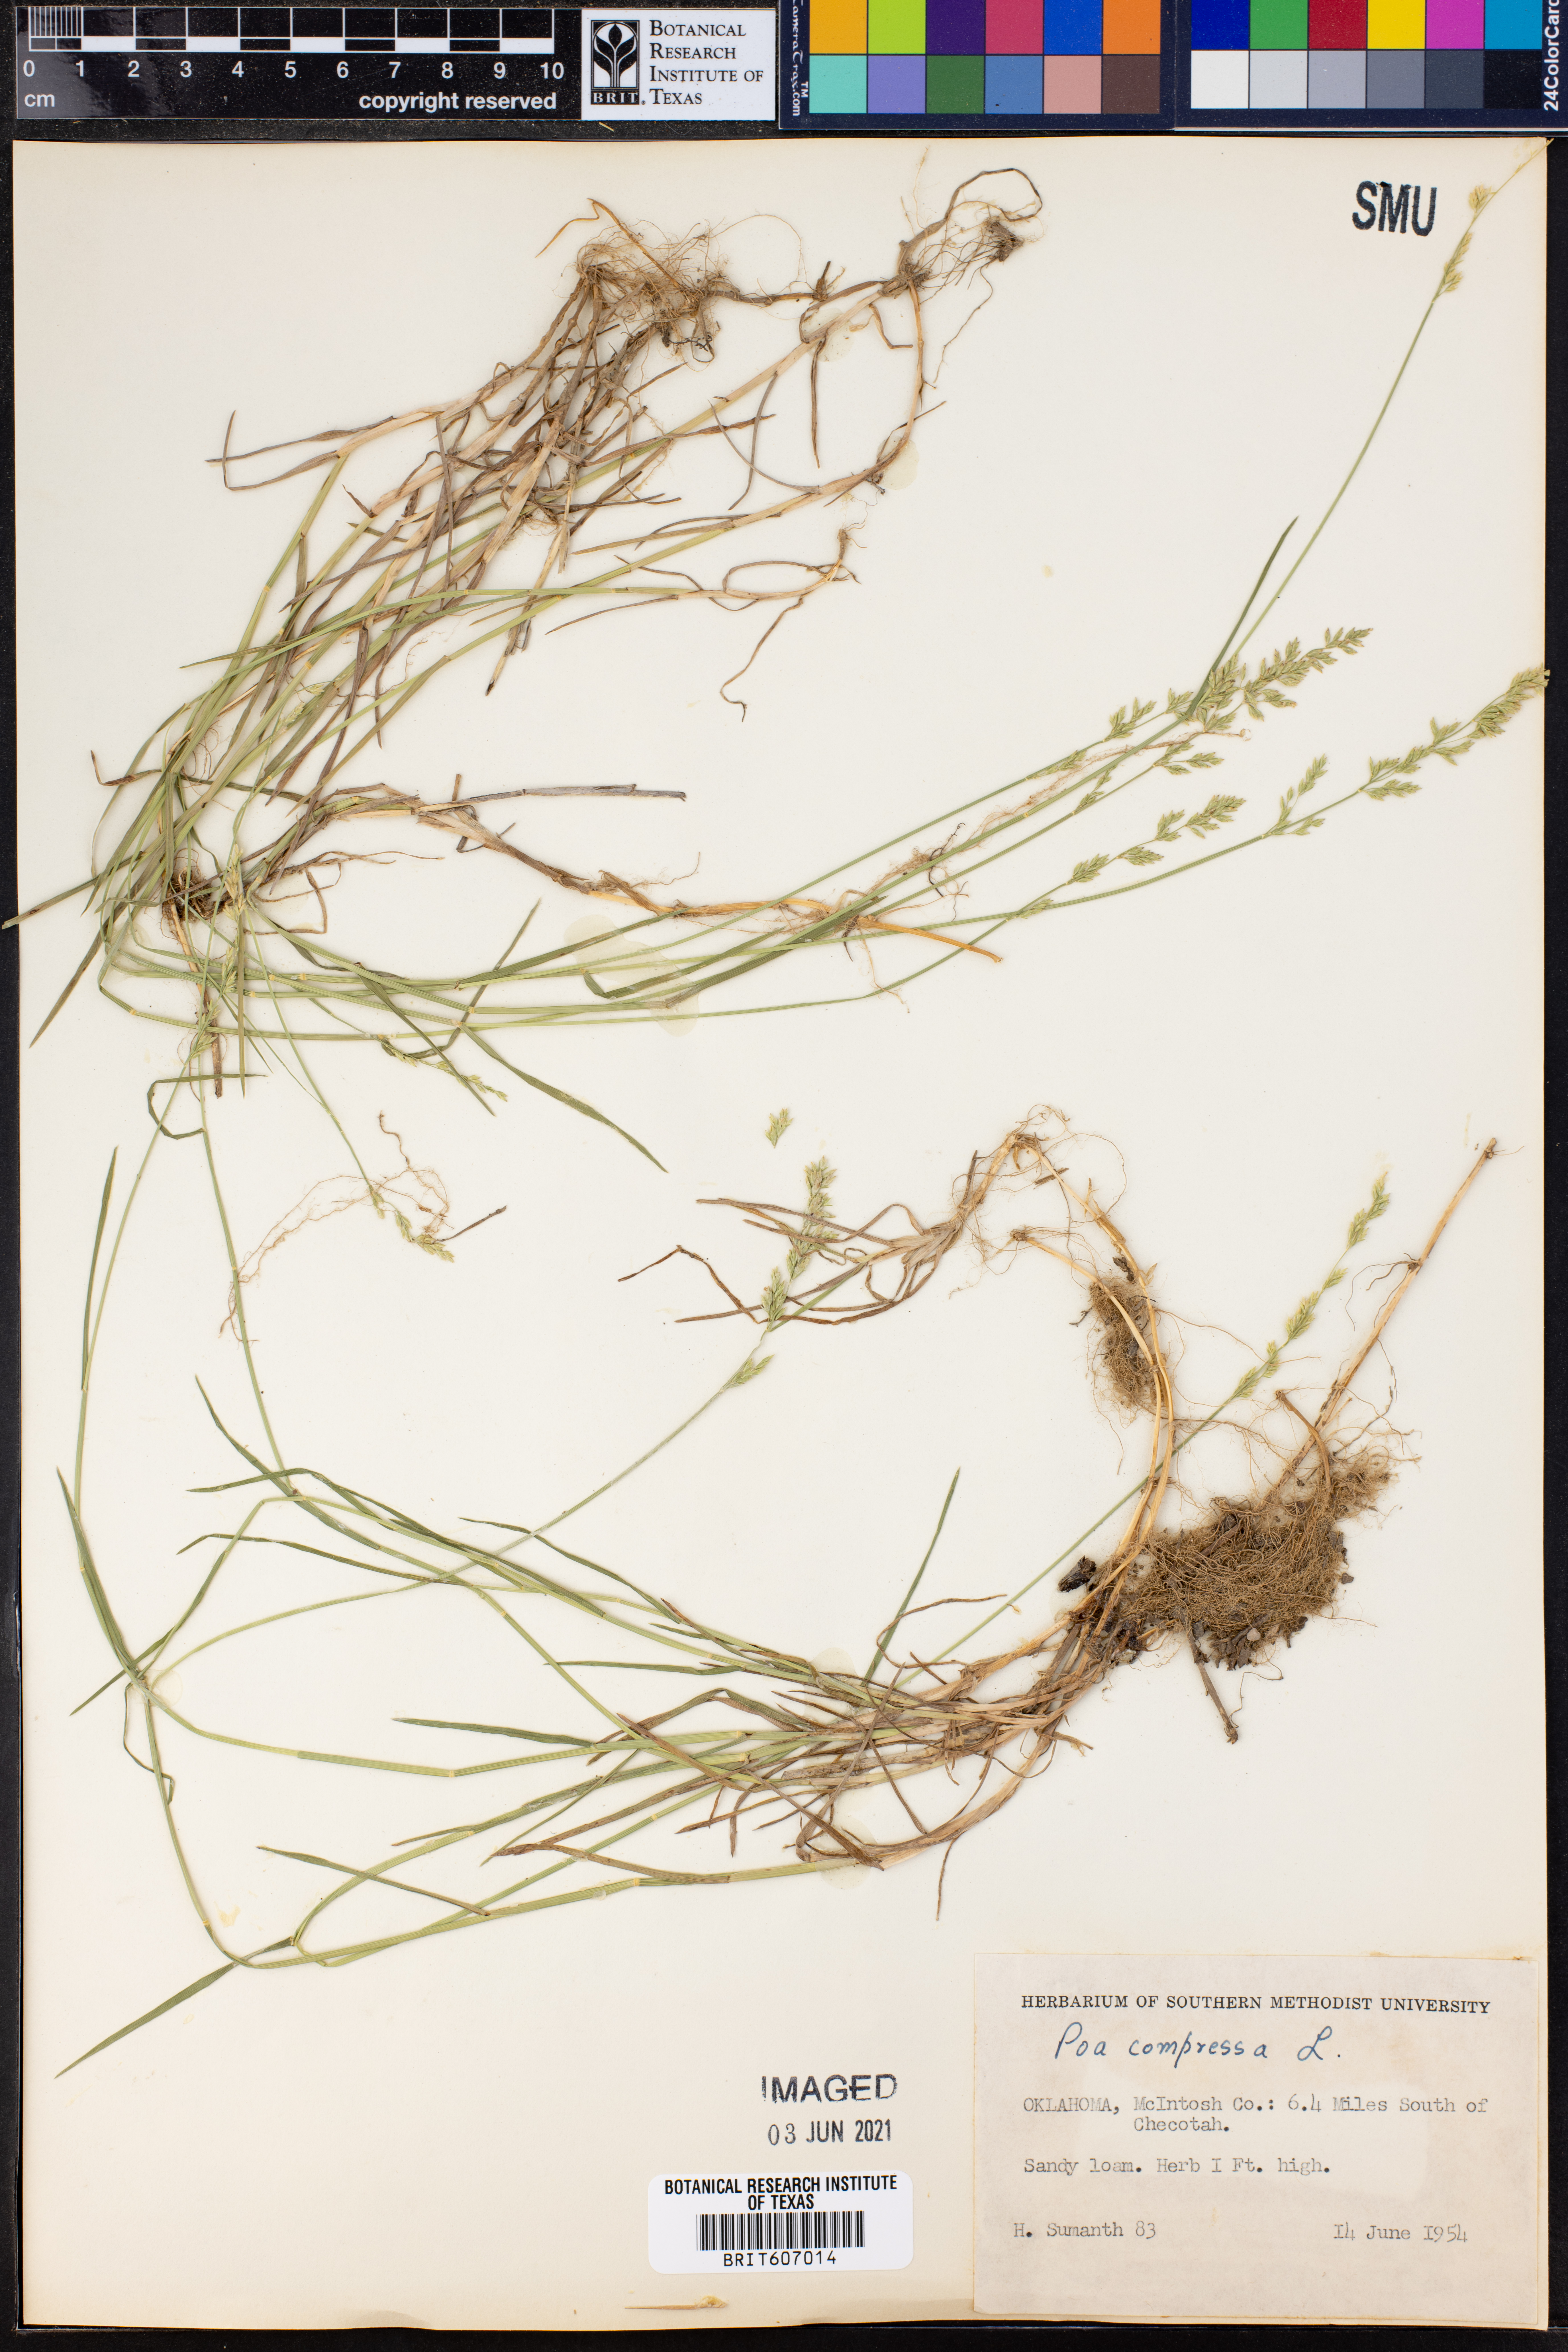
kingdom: Plantae
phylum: Tracheophyta
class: Liliopsida
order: Poales
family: Poaceae
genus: Poa
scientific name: Poa compressa
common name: Canada bluegrass
